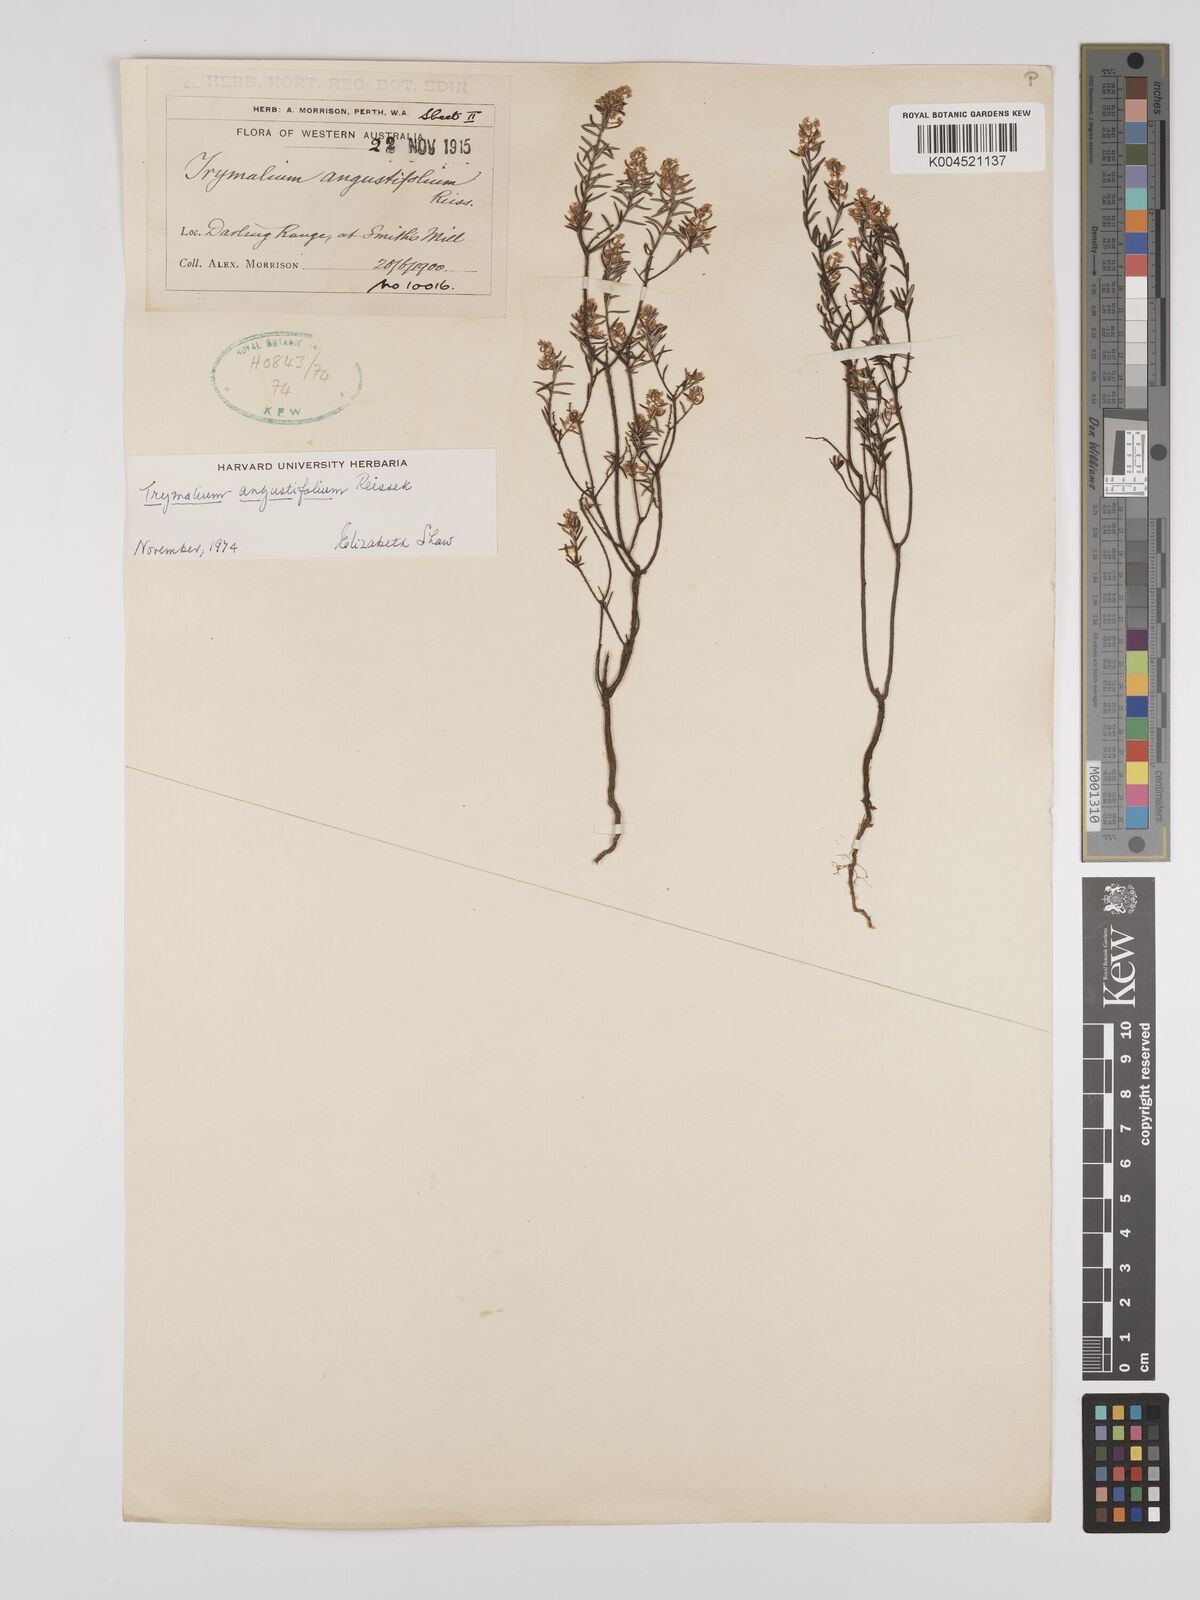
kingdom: Plantae
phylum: Tracheophyta
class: Magnoliopsida
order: Rosales
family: Rhamnaceae
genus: Trymalium
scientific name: Trymalium angustifolium
